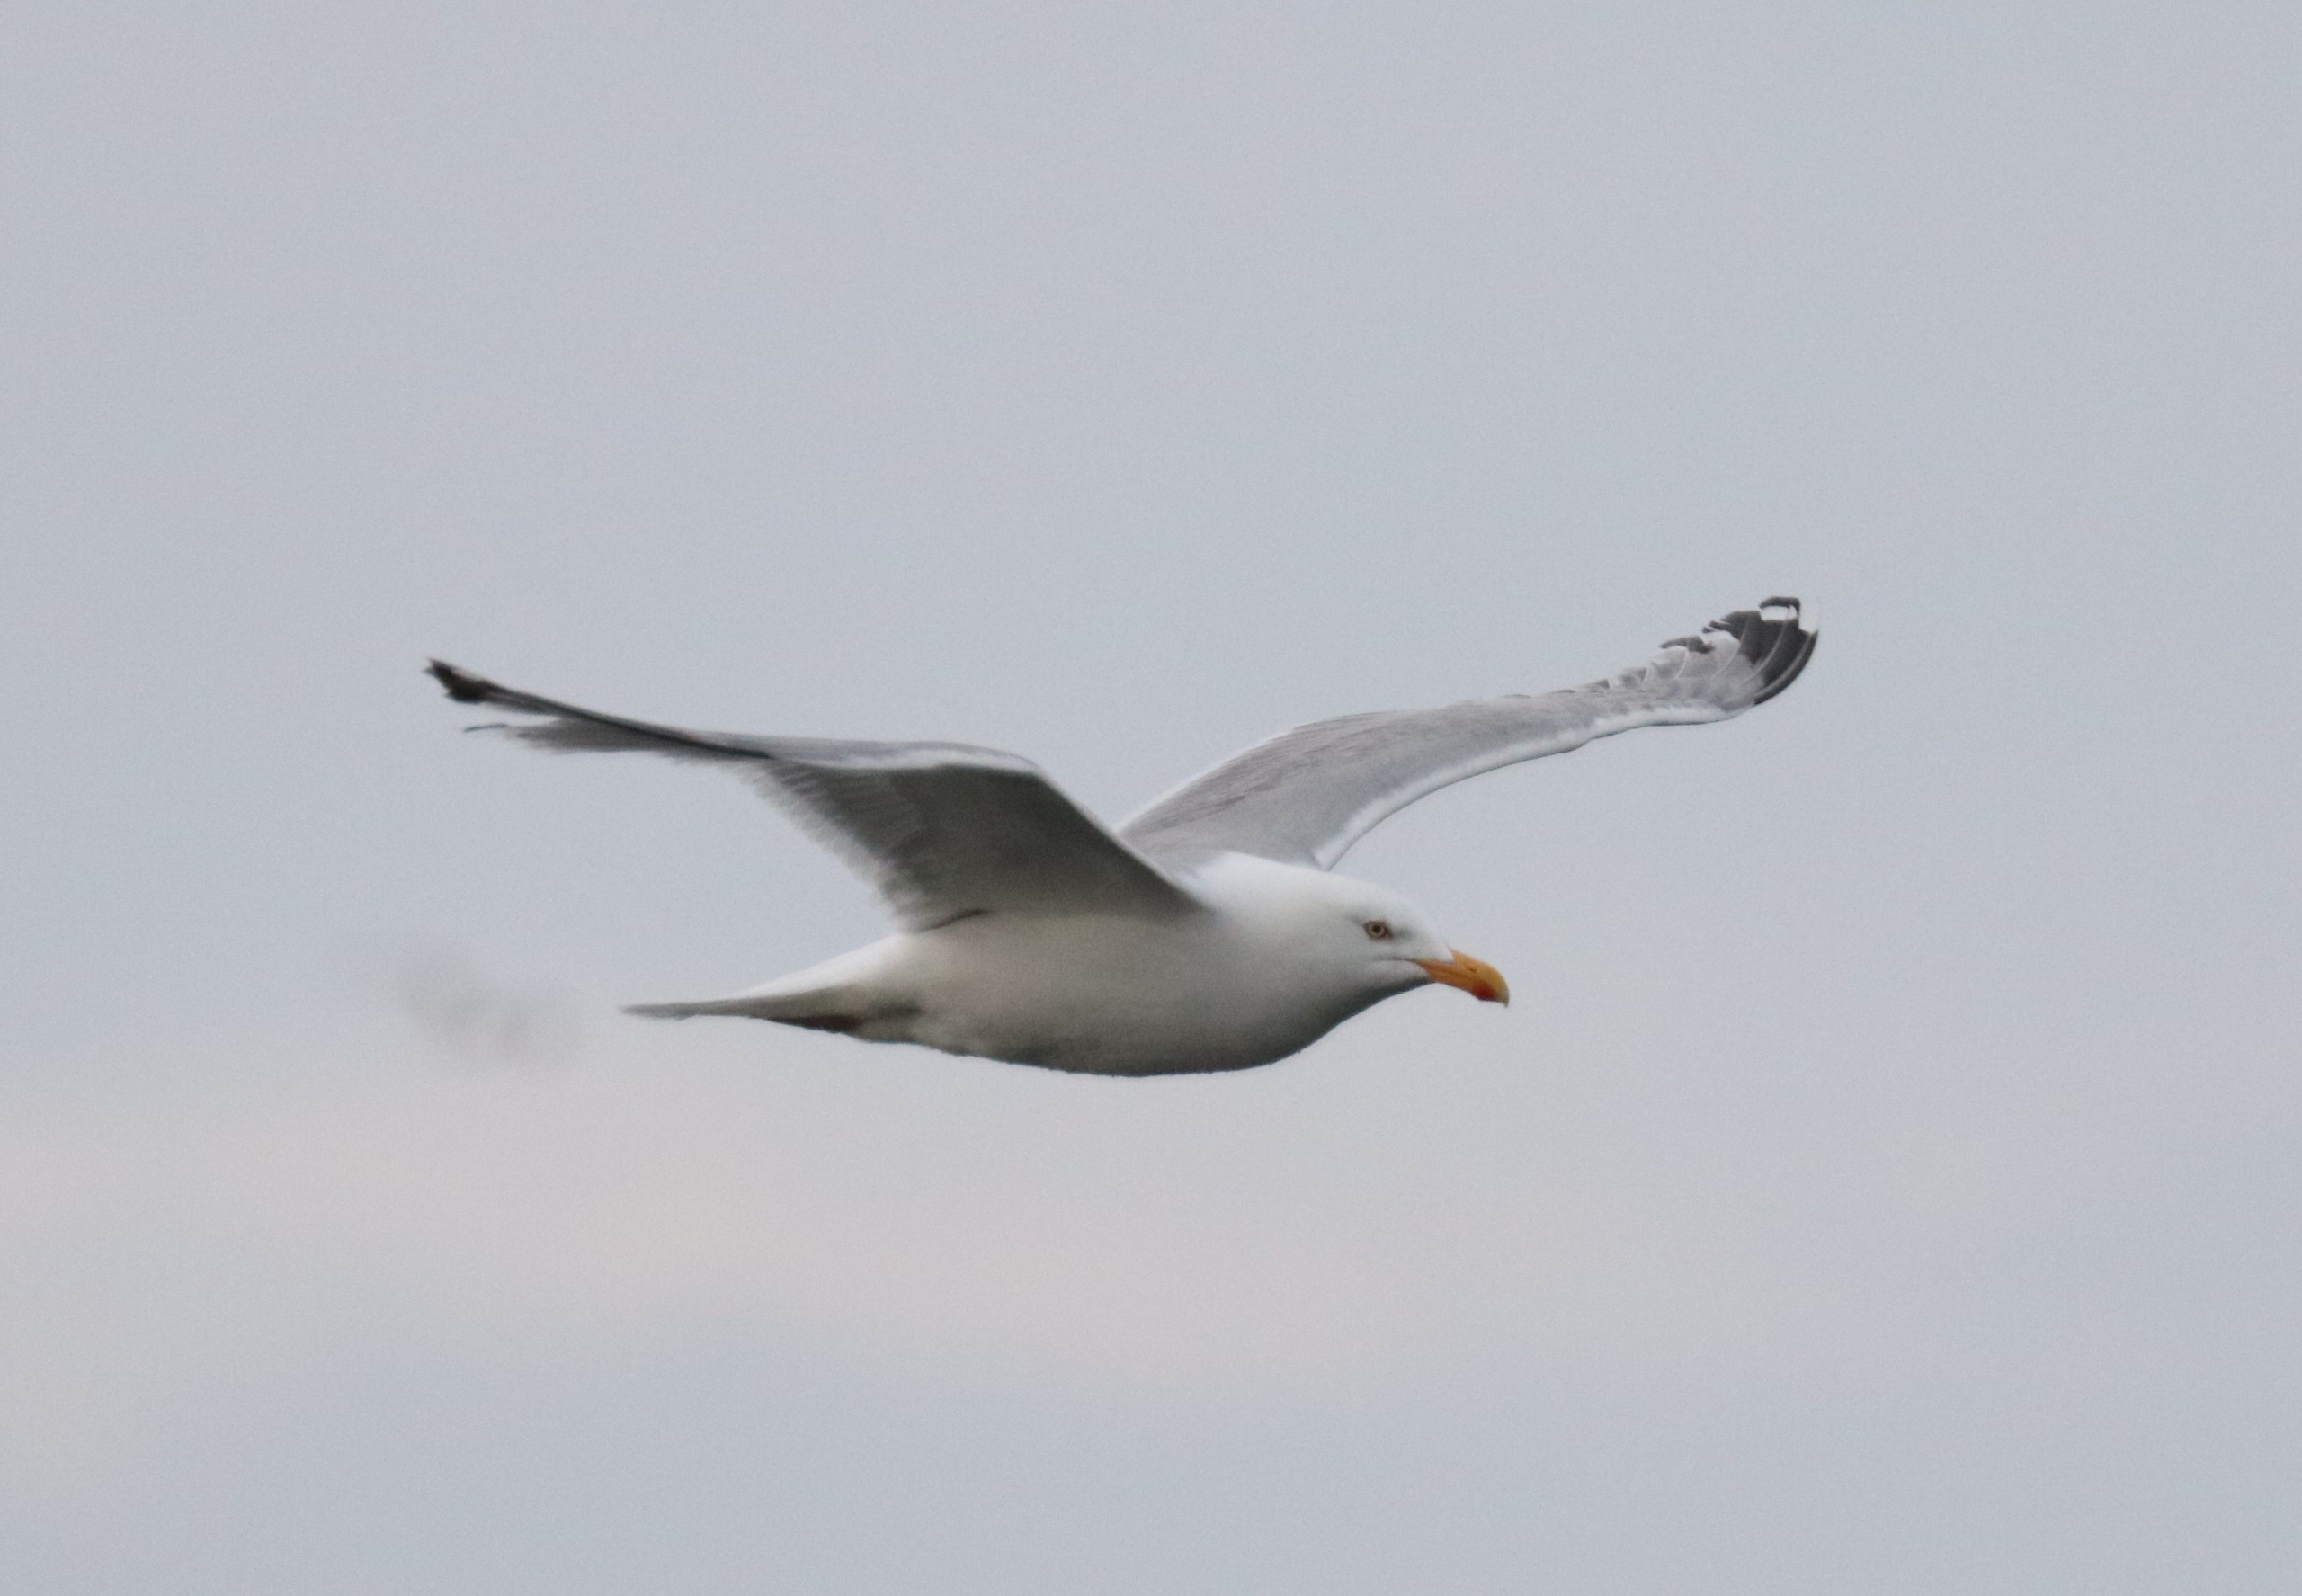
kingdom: Animalia
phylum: Chordata
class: Aves
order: Charadriiformes
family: Laridae
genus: Larus
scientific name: Larus argentatus
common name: Sølvmåge
